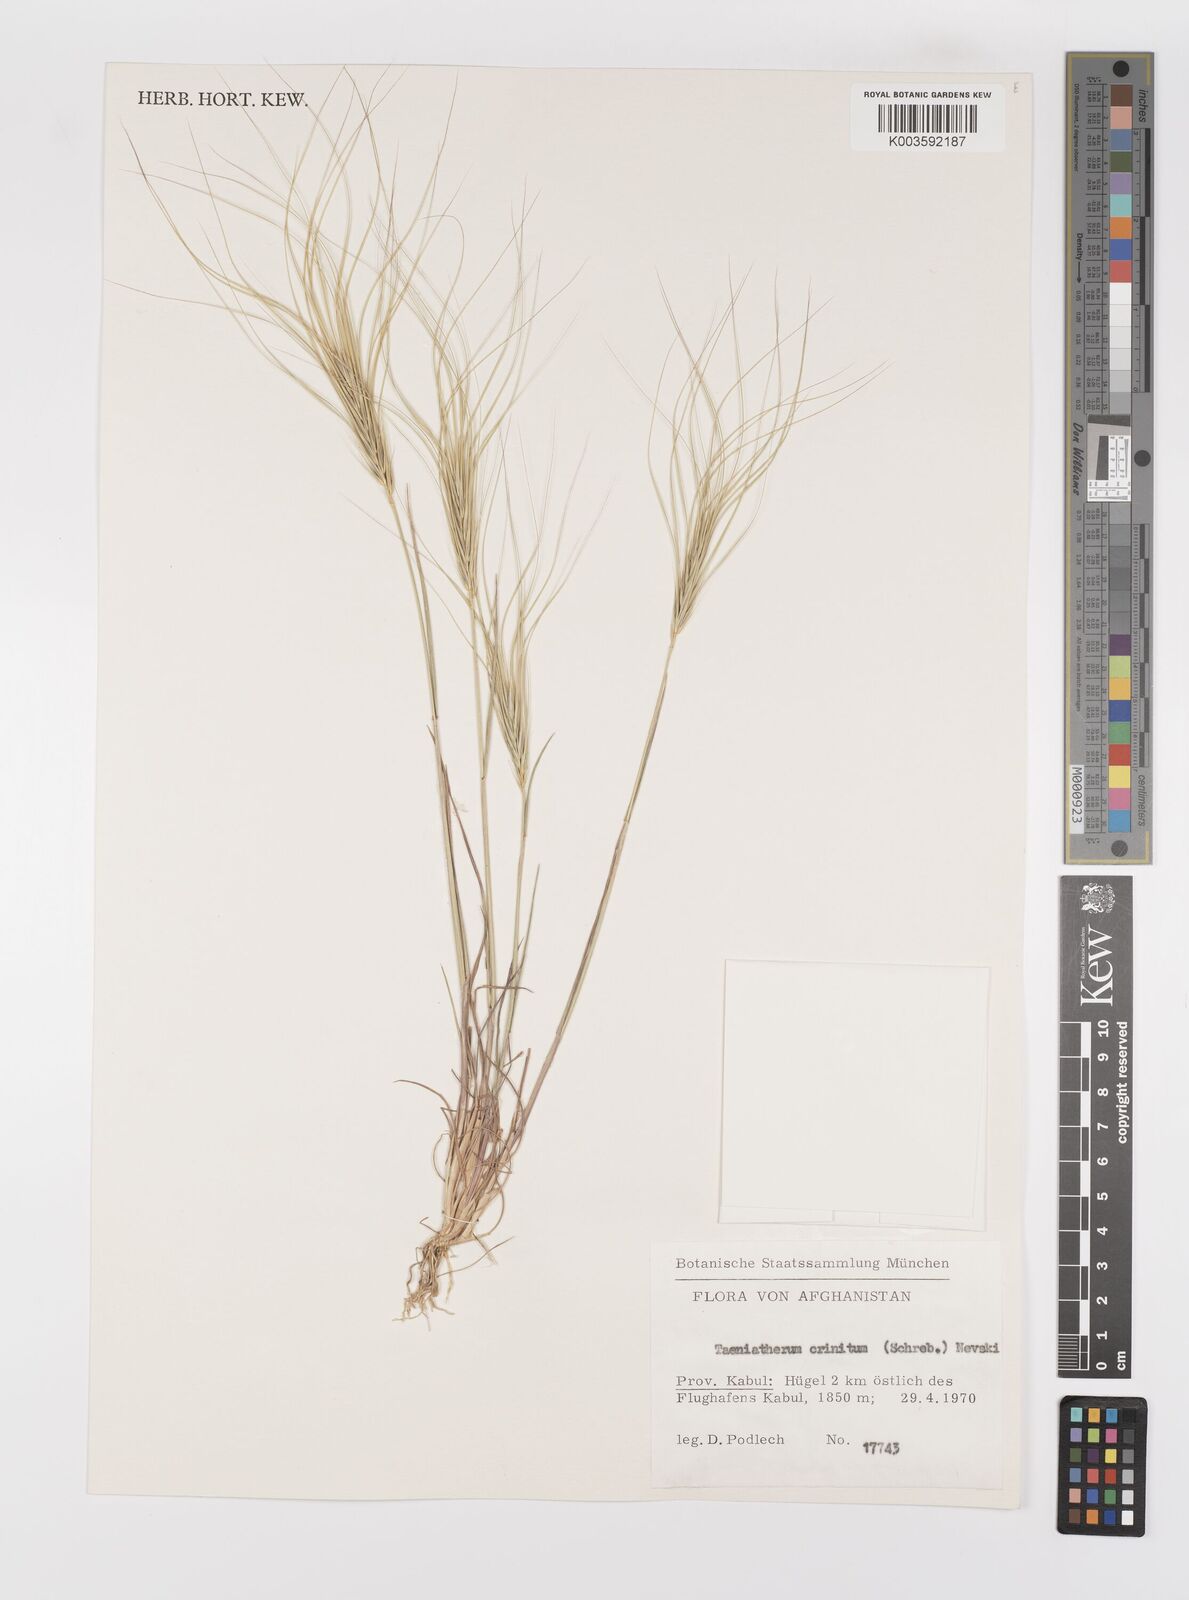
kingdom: Plantae
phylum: Tracheophyta
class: Liliopsida
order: Poales
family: Poaceae
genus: Taeniatherum
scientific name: Taeniatherum caput-medusae
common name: Medusahead
